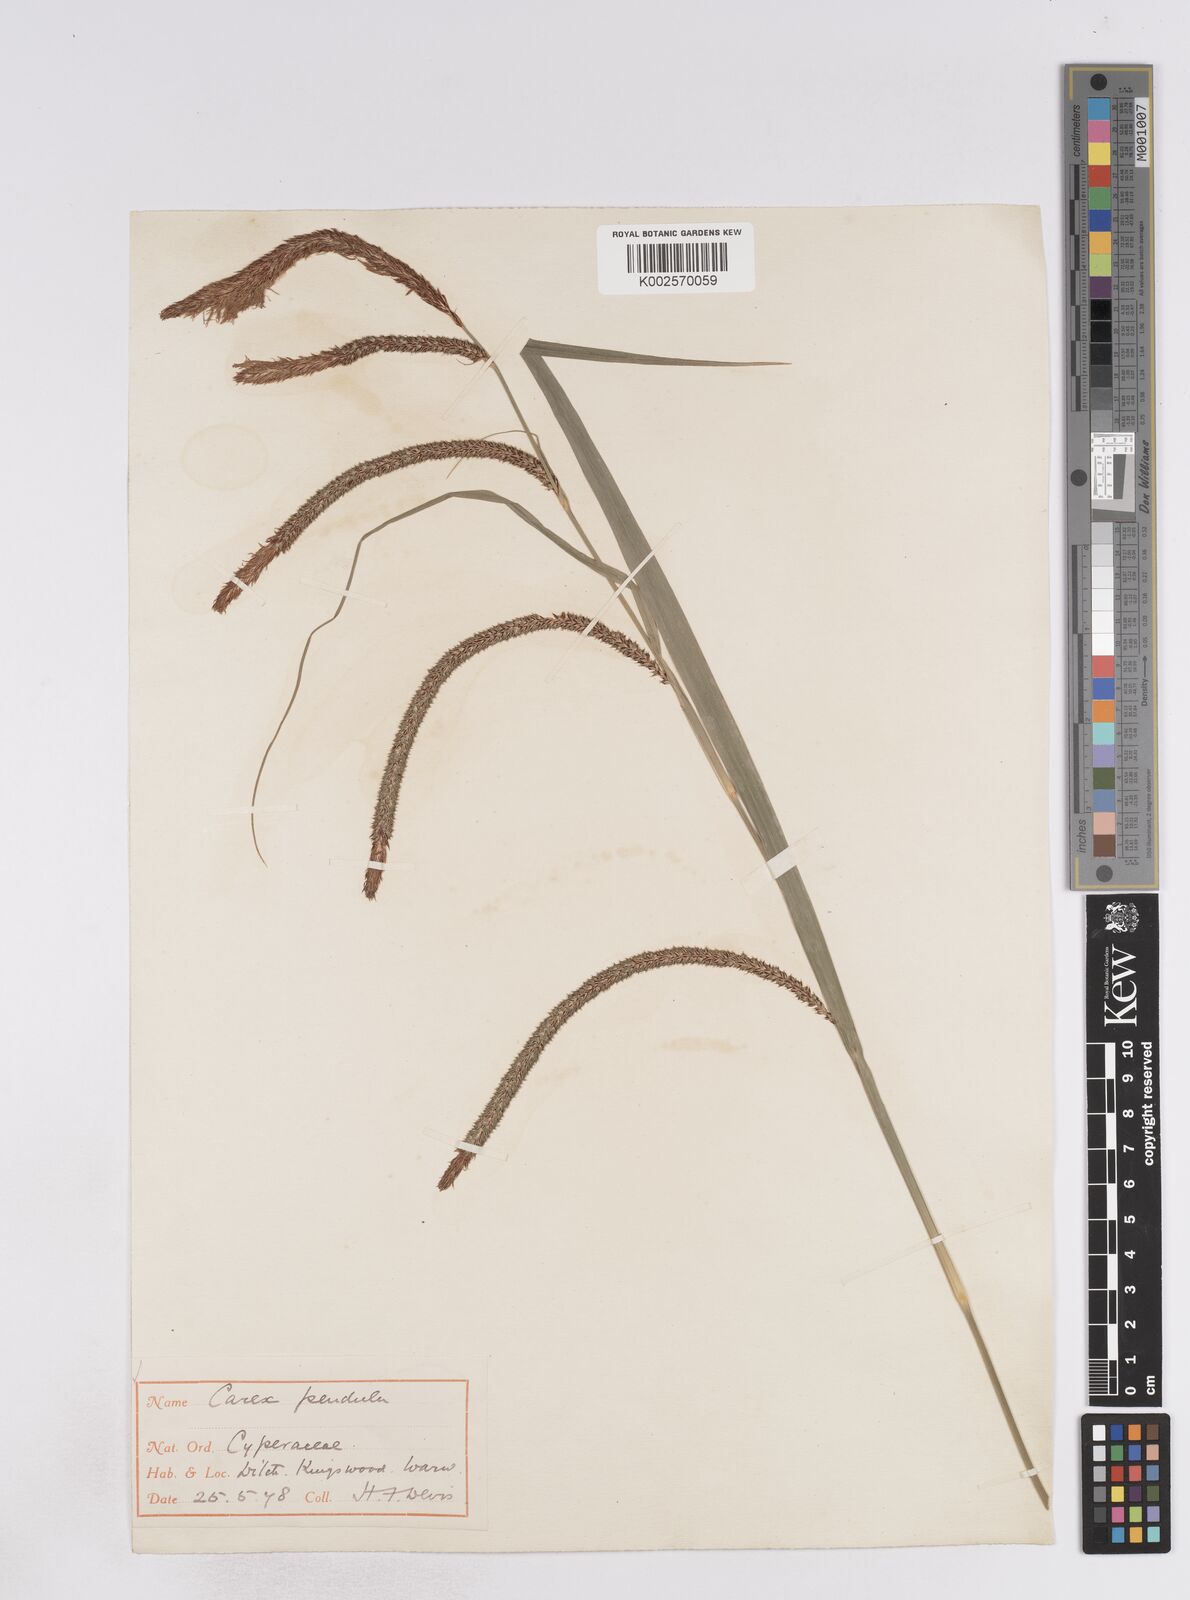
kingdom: Plantae
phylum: Tracheophyta
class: Liliopsida
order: Poales
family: Cyperaceae
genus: Carex
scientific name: Carex pendula
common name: Pendulous sedge
